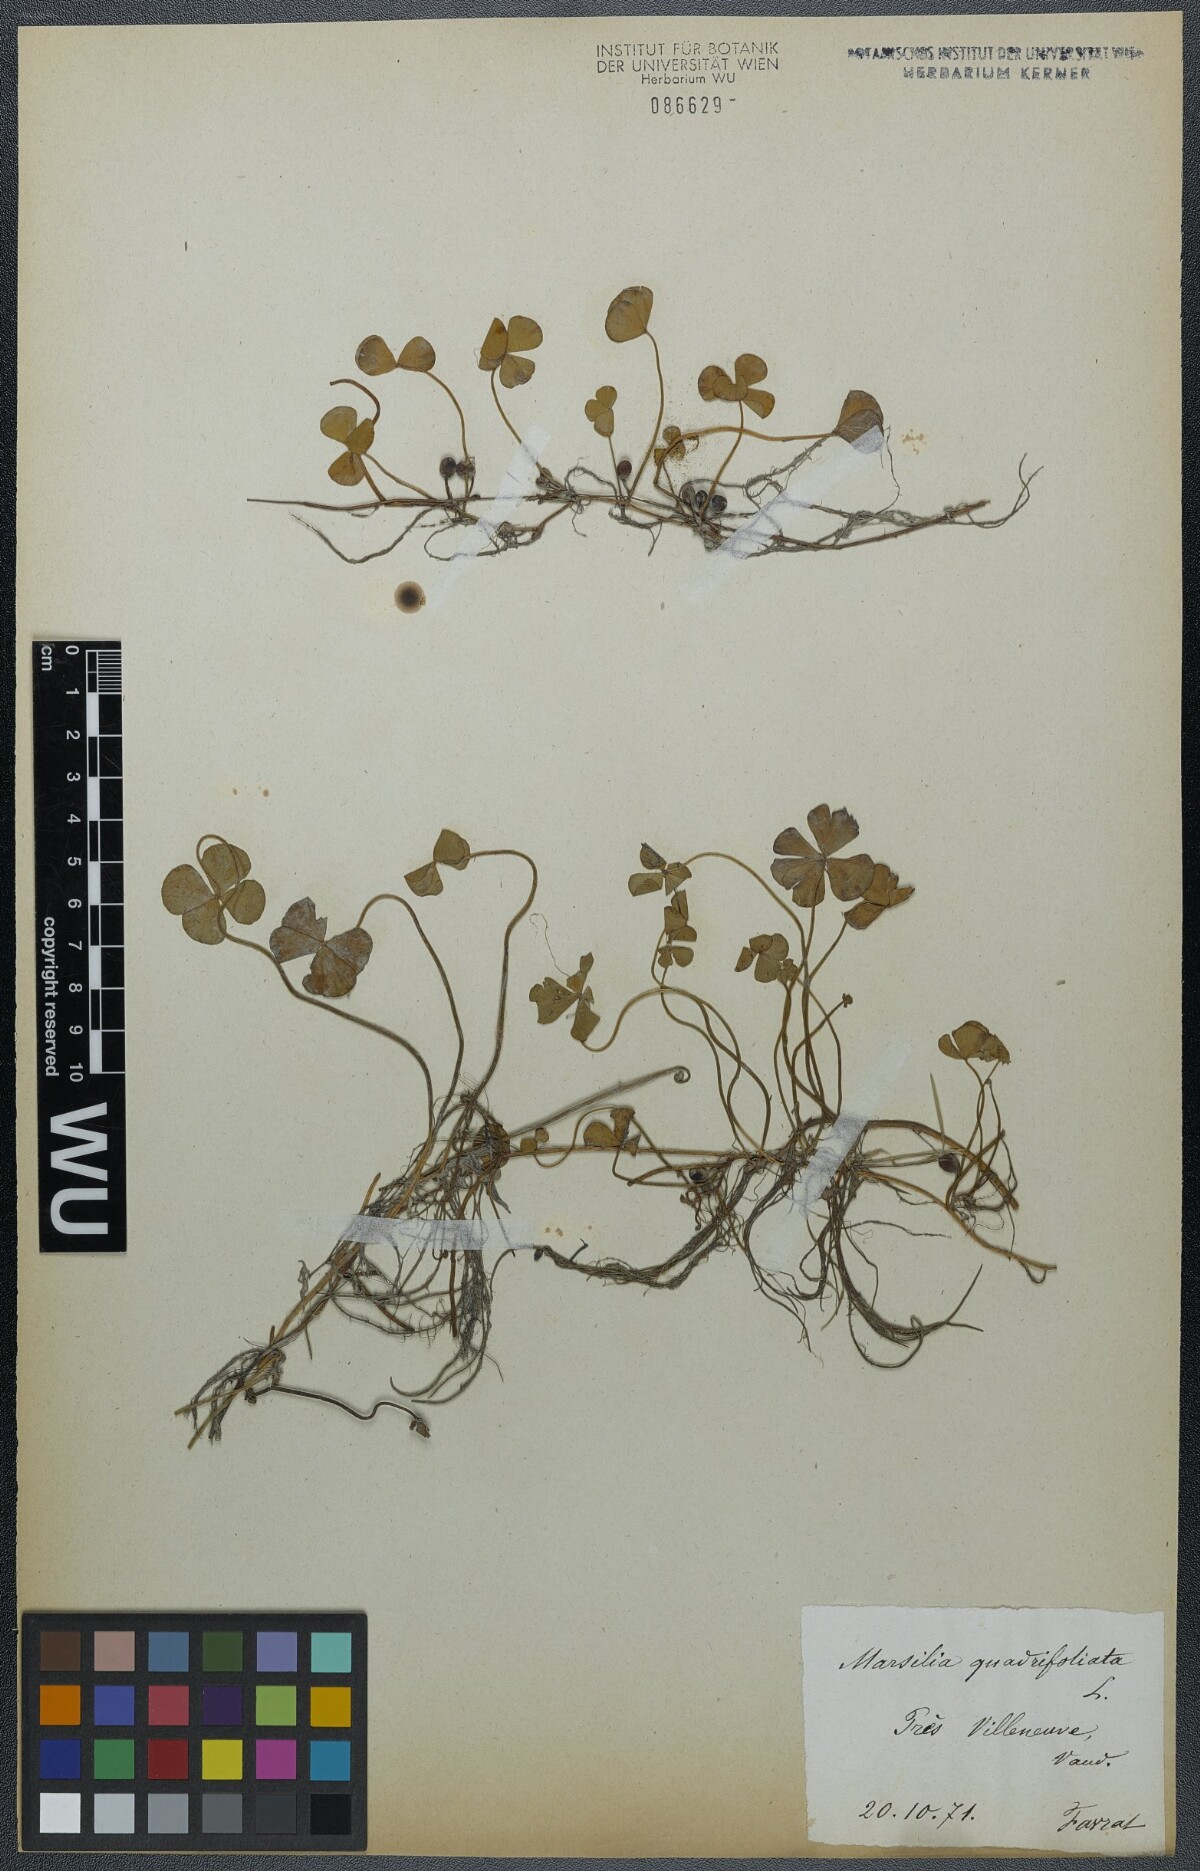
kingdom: Plantae
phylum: Tracheophyta
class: Polypodiopsida
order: Salviniales
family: Marsileaceae
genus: Marsilea
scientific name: Marsilea quadrifolia
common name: Water shamrock
